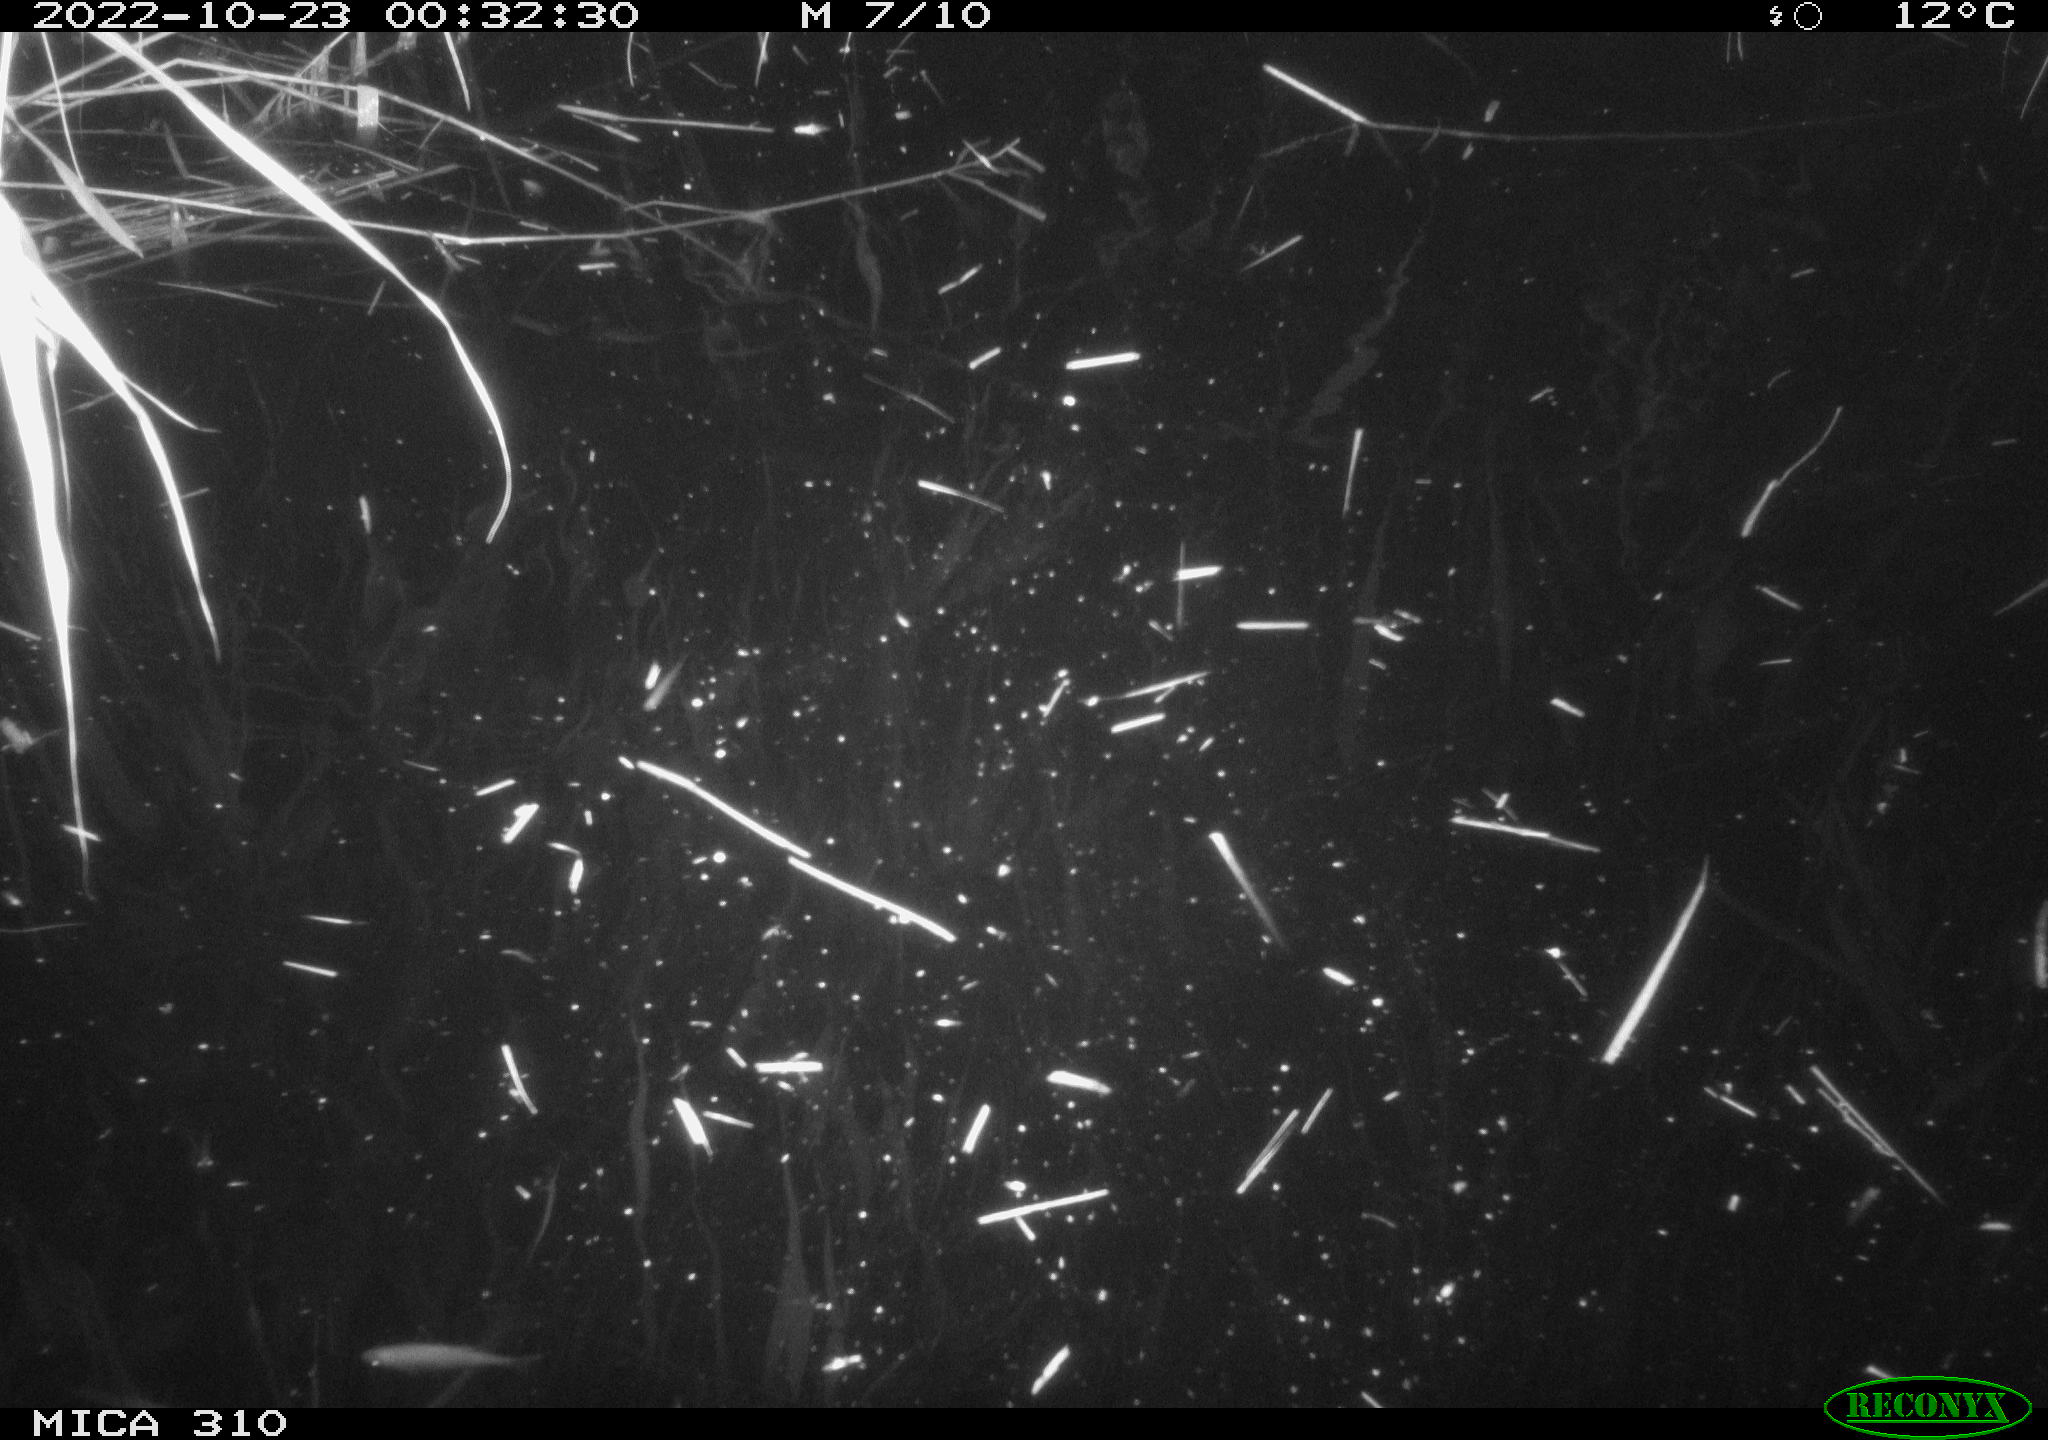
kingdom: Animalia
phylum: Chordata
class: Mammalia
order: Rodentia
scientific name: Rodentia
